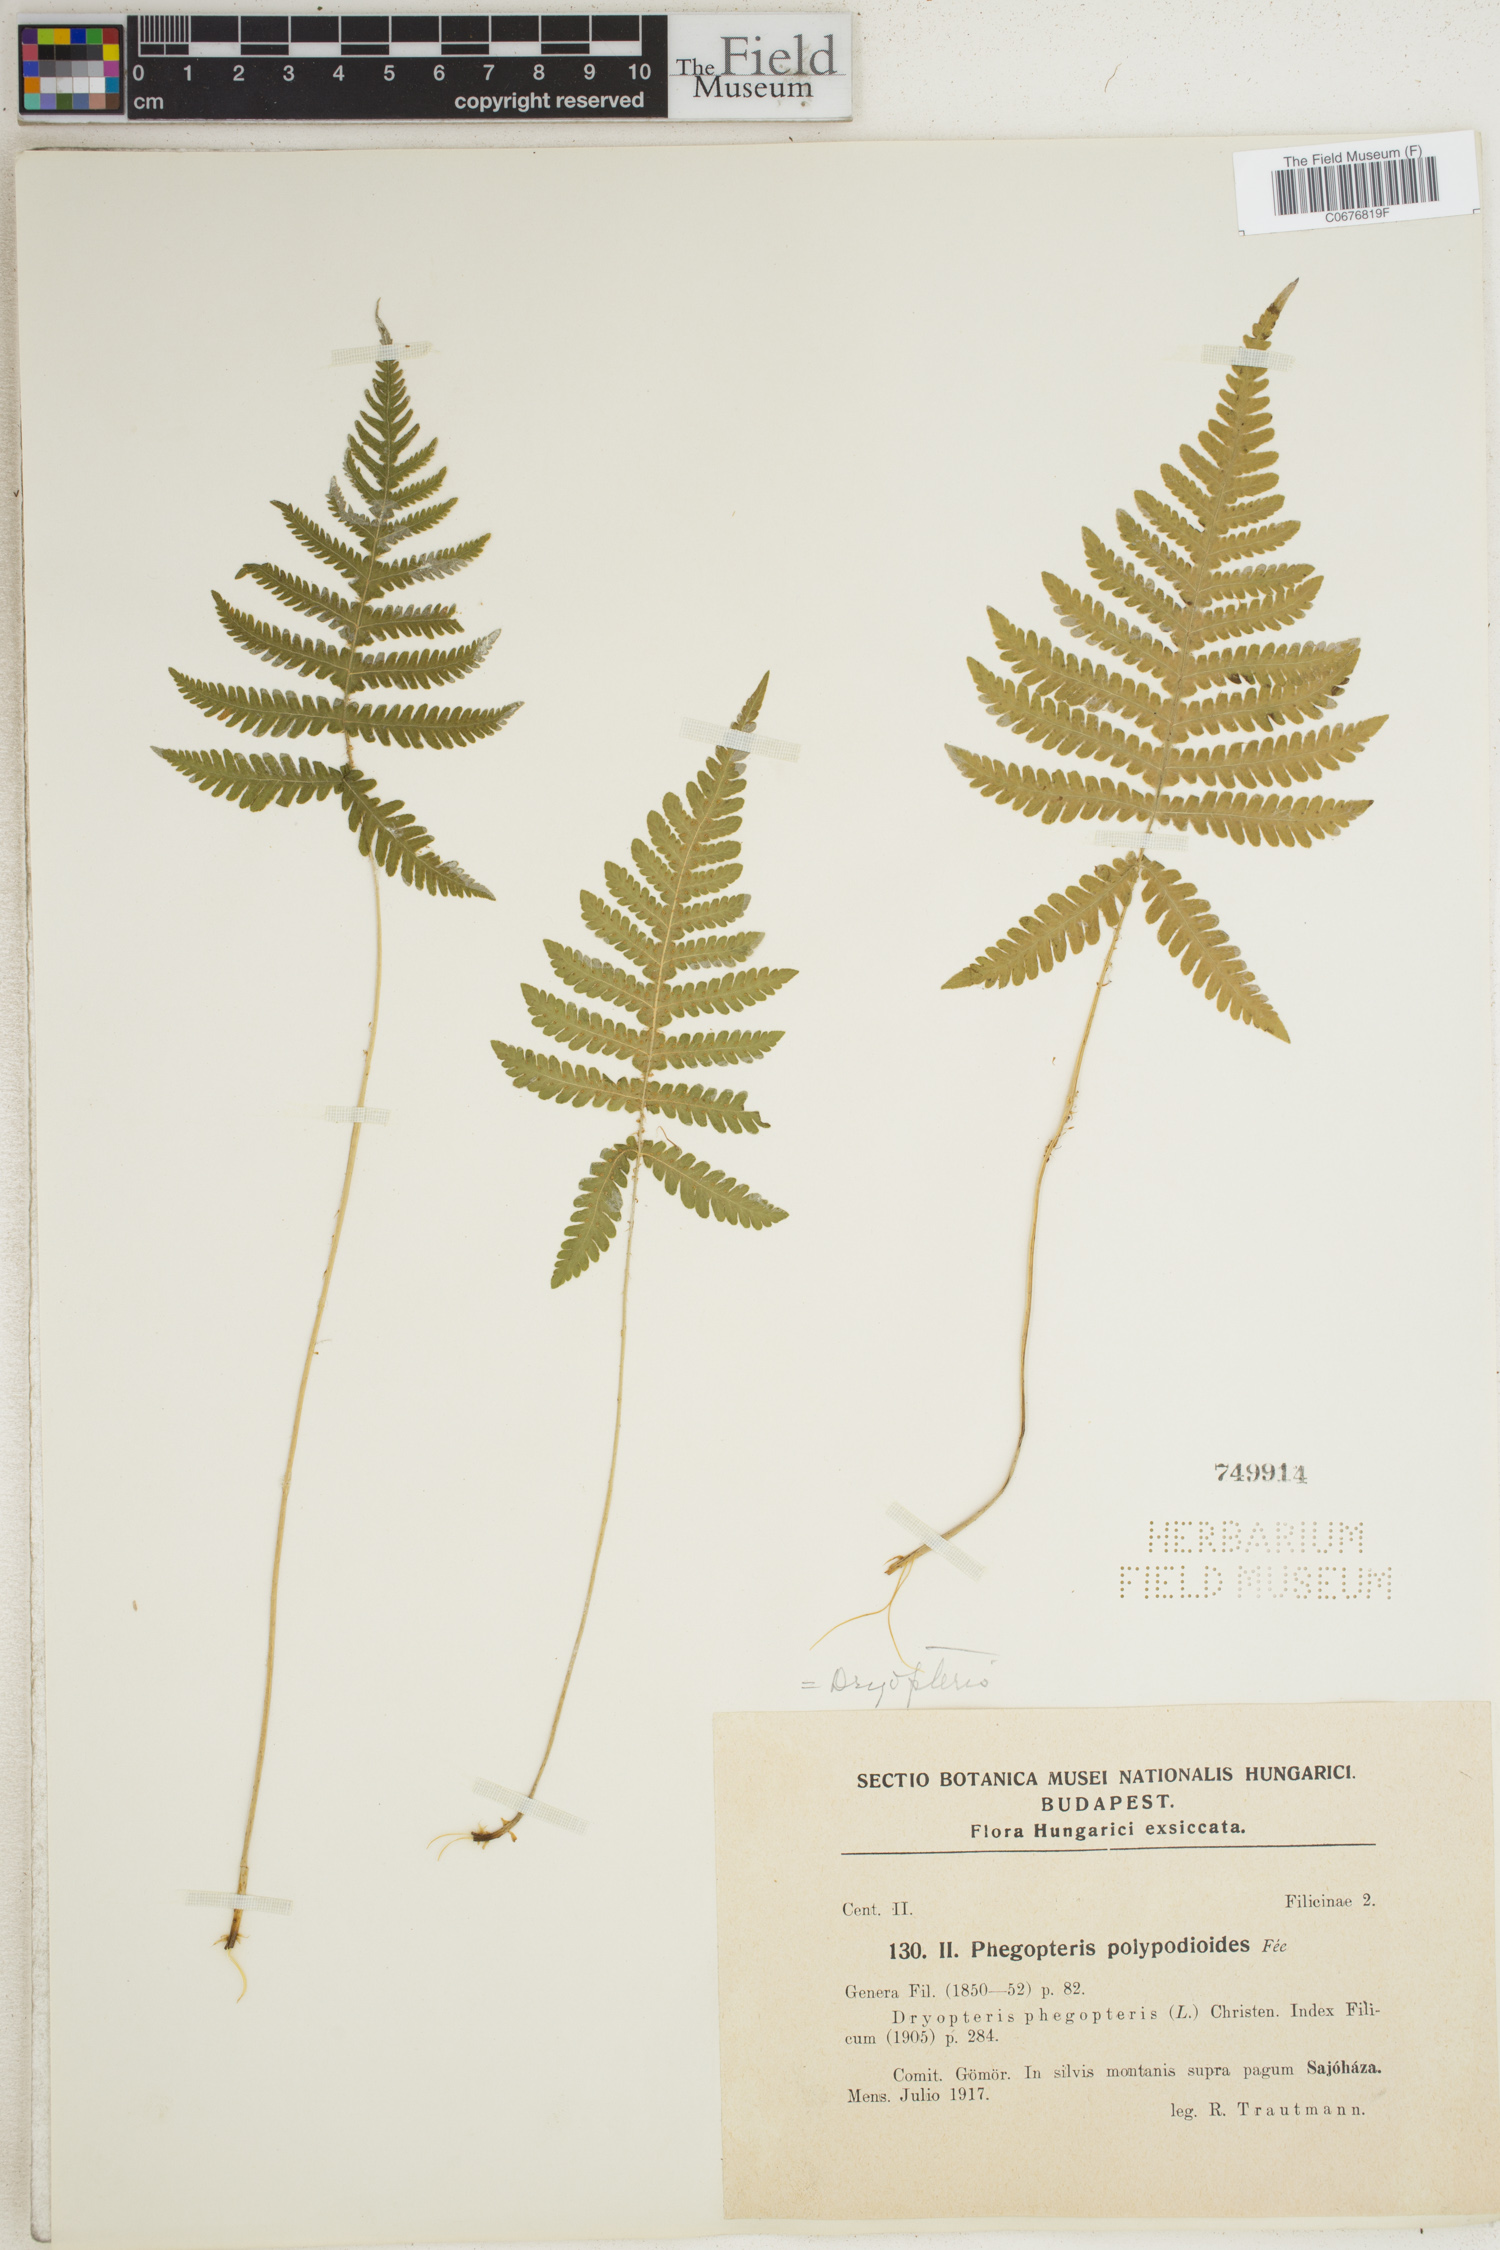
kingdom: Plantae
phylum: Tracheophyta
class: Polypodiopsida
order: Polypodiales
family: Thelypteridaceae
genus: Phegopteris
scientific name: Phegopteris connectilis
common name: Beech fern
